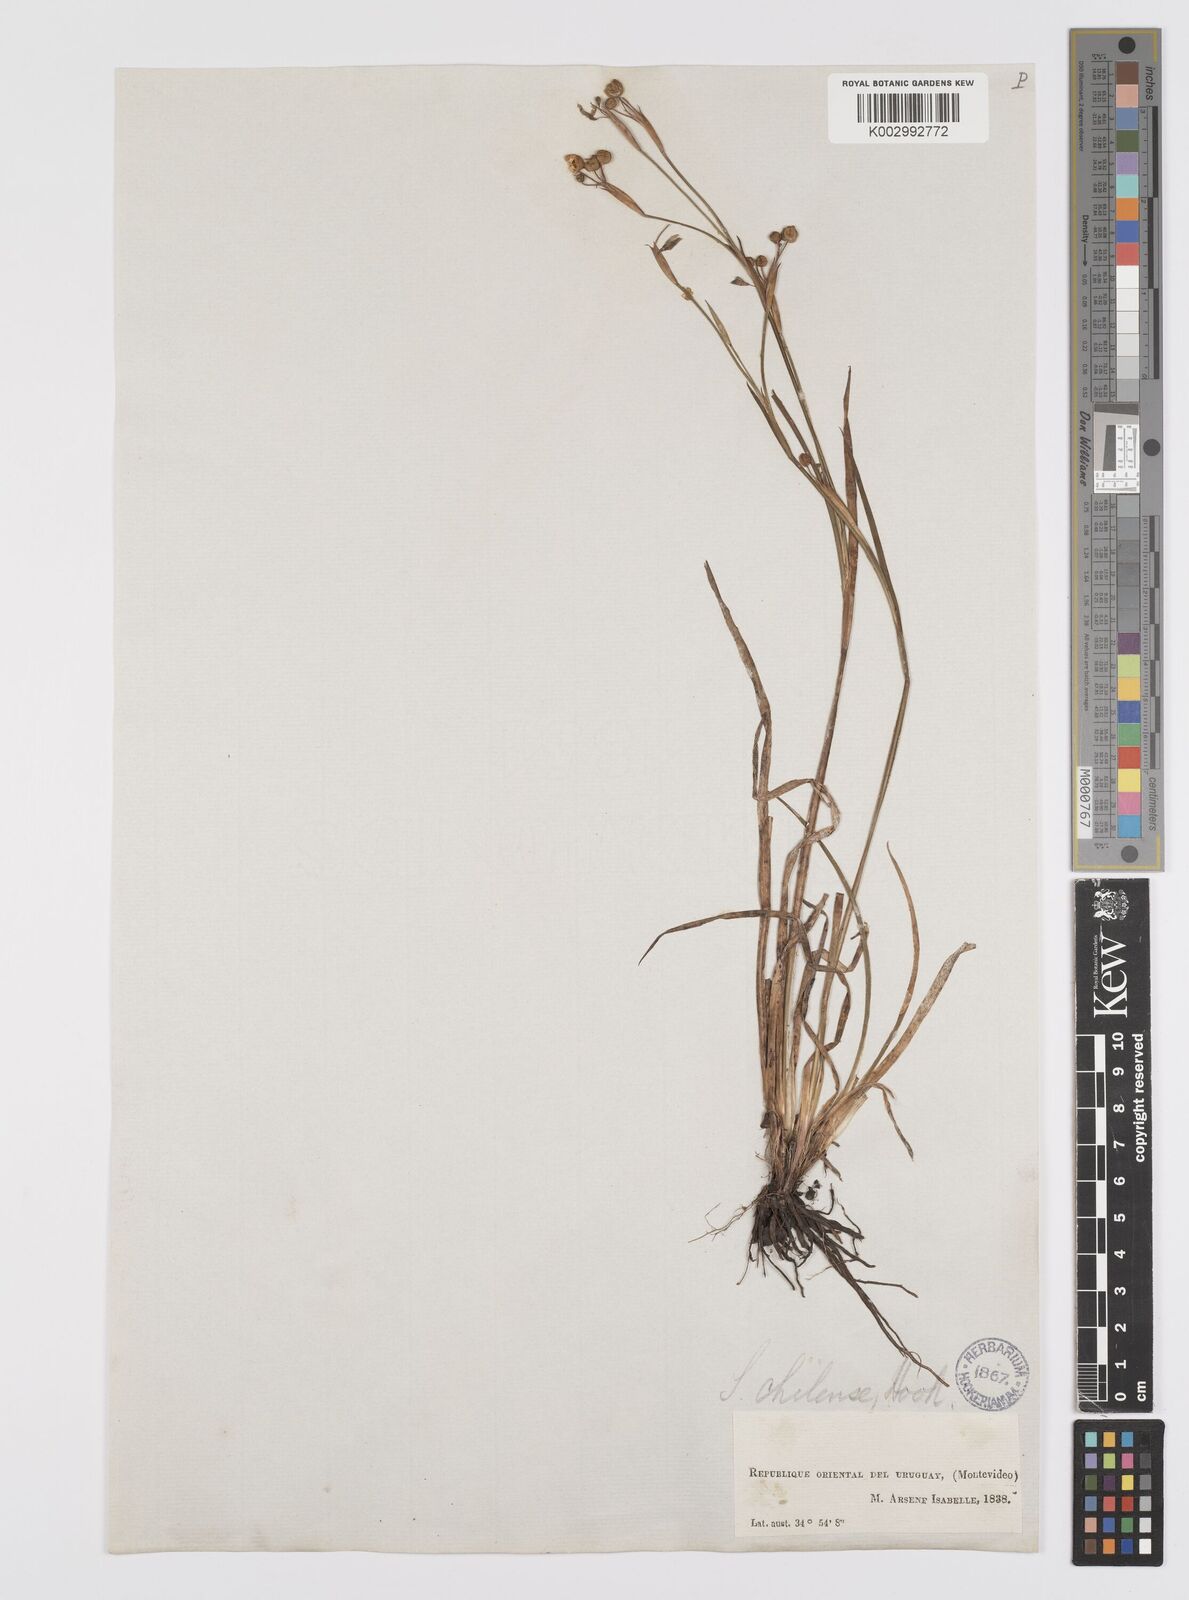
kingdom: Plantae
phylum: Tracheophyta
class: Liliopsida
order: Asparagales
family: Iridaceae
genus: Sisyrinchium
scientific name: Sisyrinchium chilense
